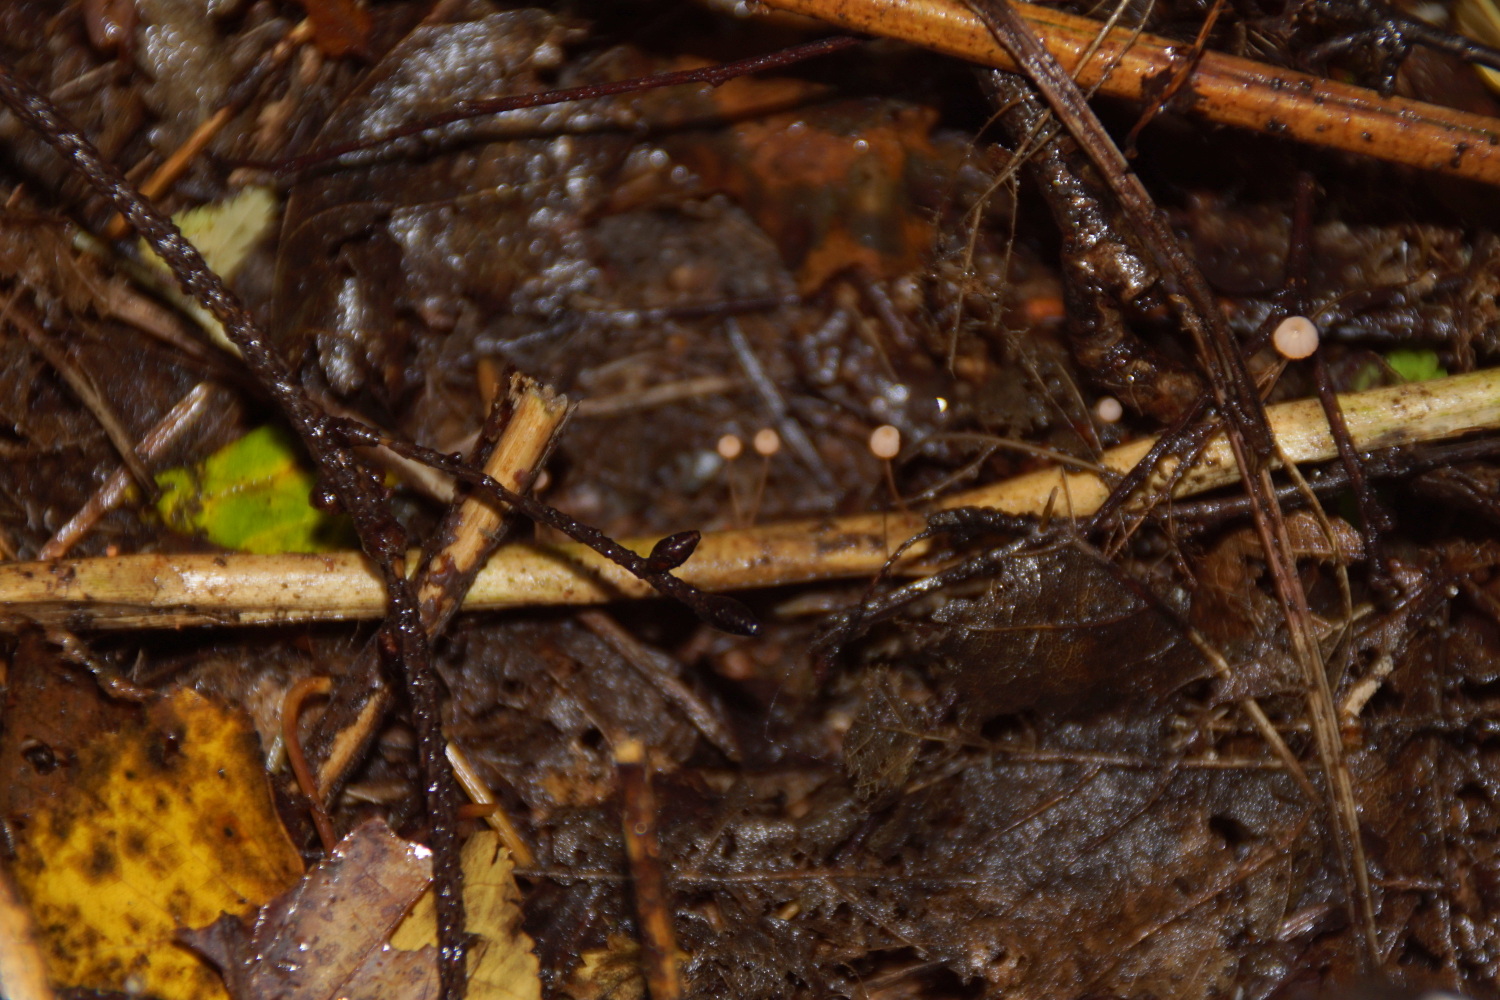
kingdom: Fungi
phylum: Basidiomycota
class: Agaricomycetes
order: Agaricales
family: Mycenaceae
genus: Mycena
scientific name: Mycena pterigena
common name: bregne-huesvamp
